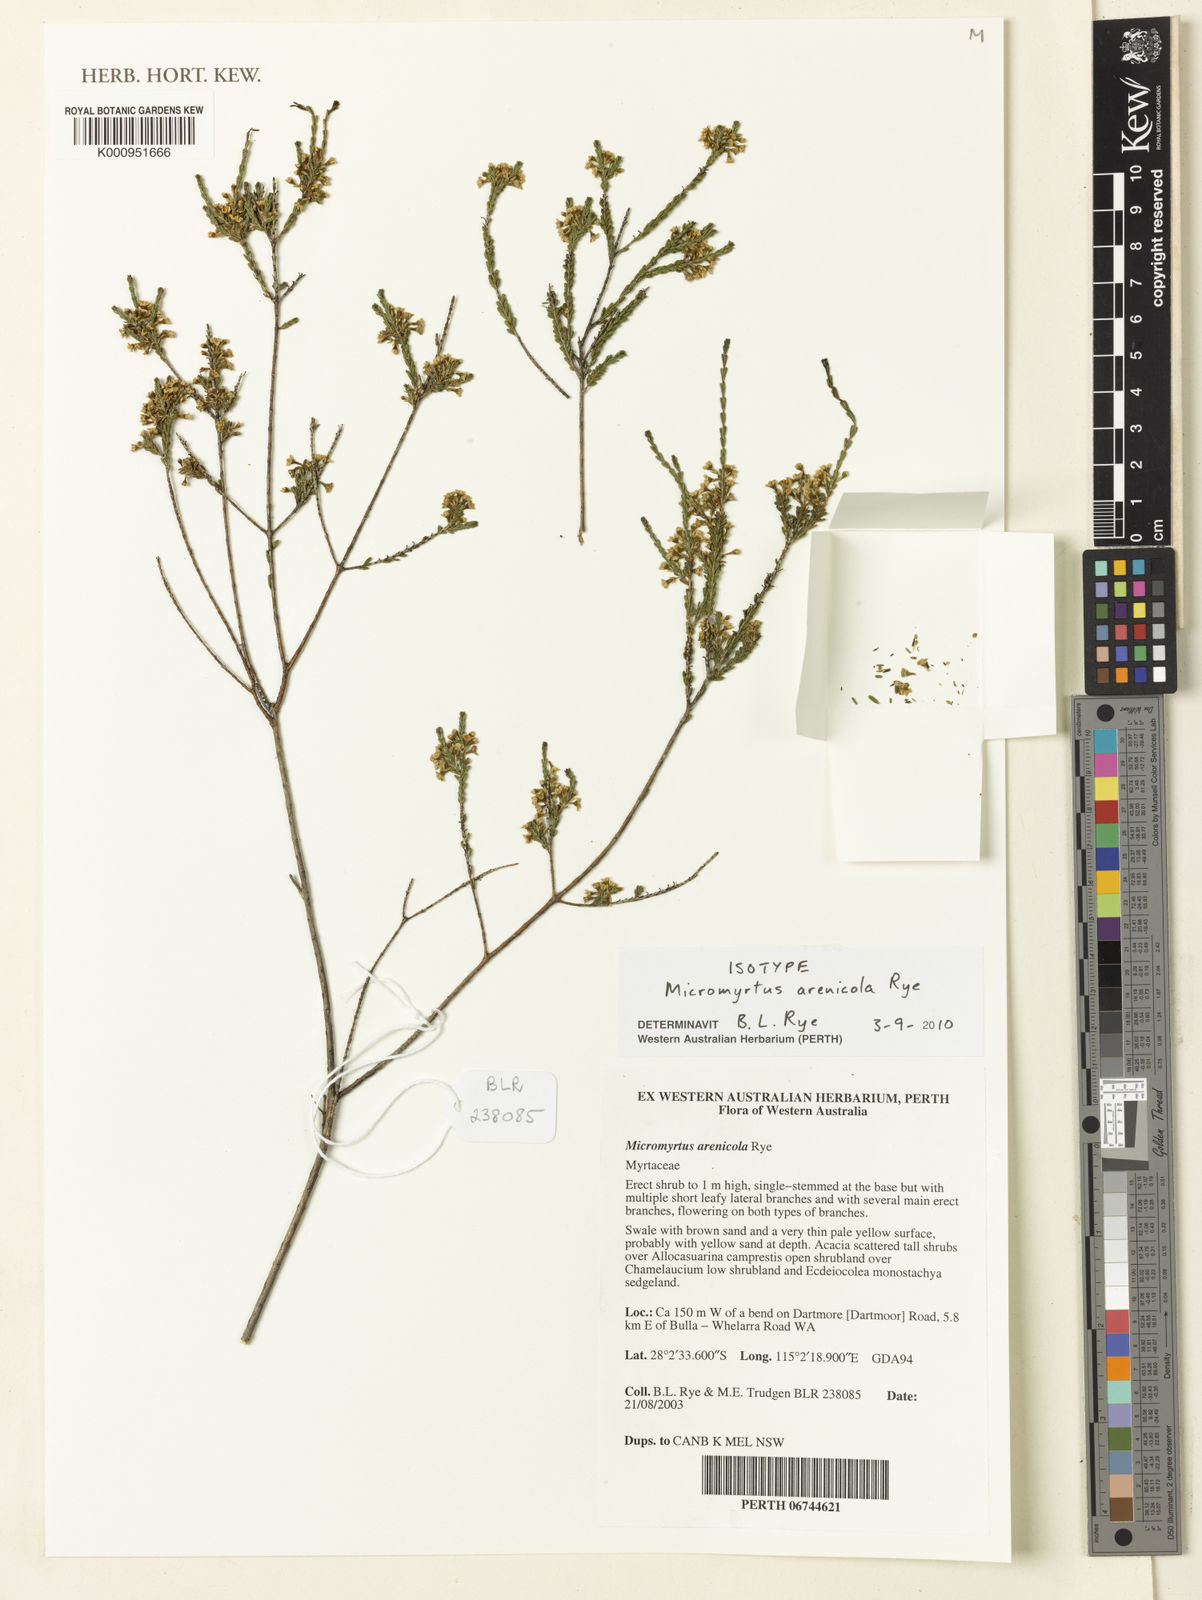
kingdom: Plantae
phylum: Tracheophyta
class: Magnoliopsida
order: Myrtales
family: Myrtaceae
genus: Micromyrtus
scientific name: Micromyrtus arenicola
